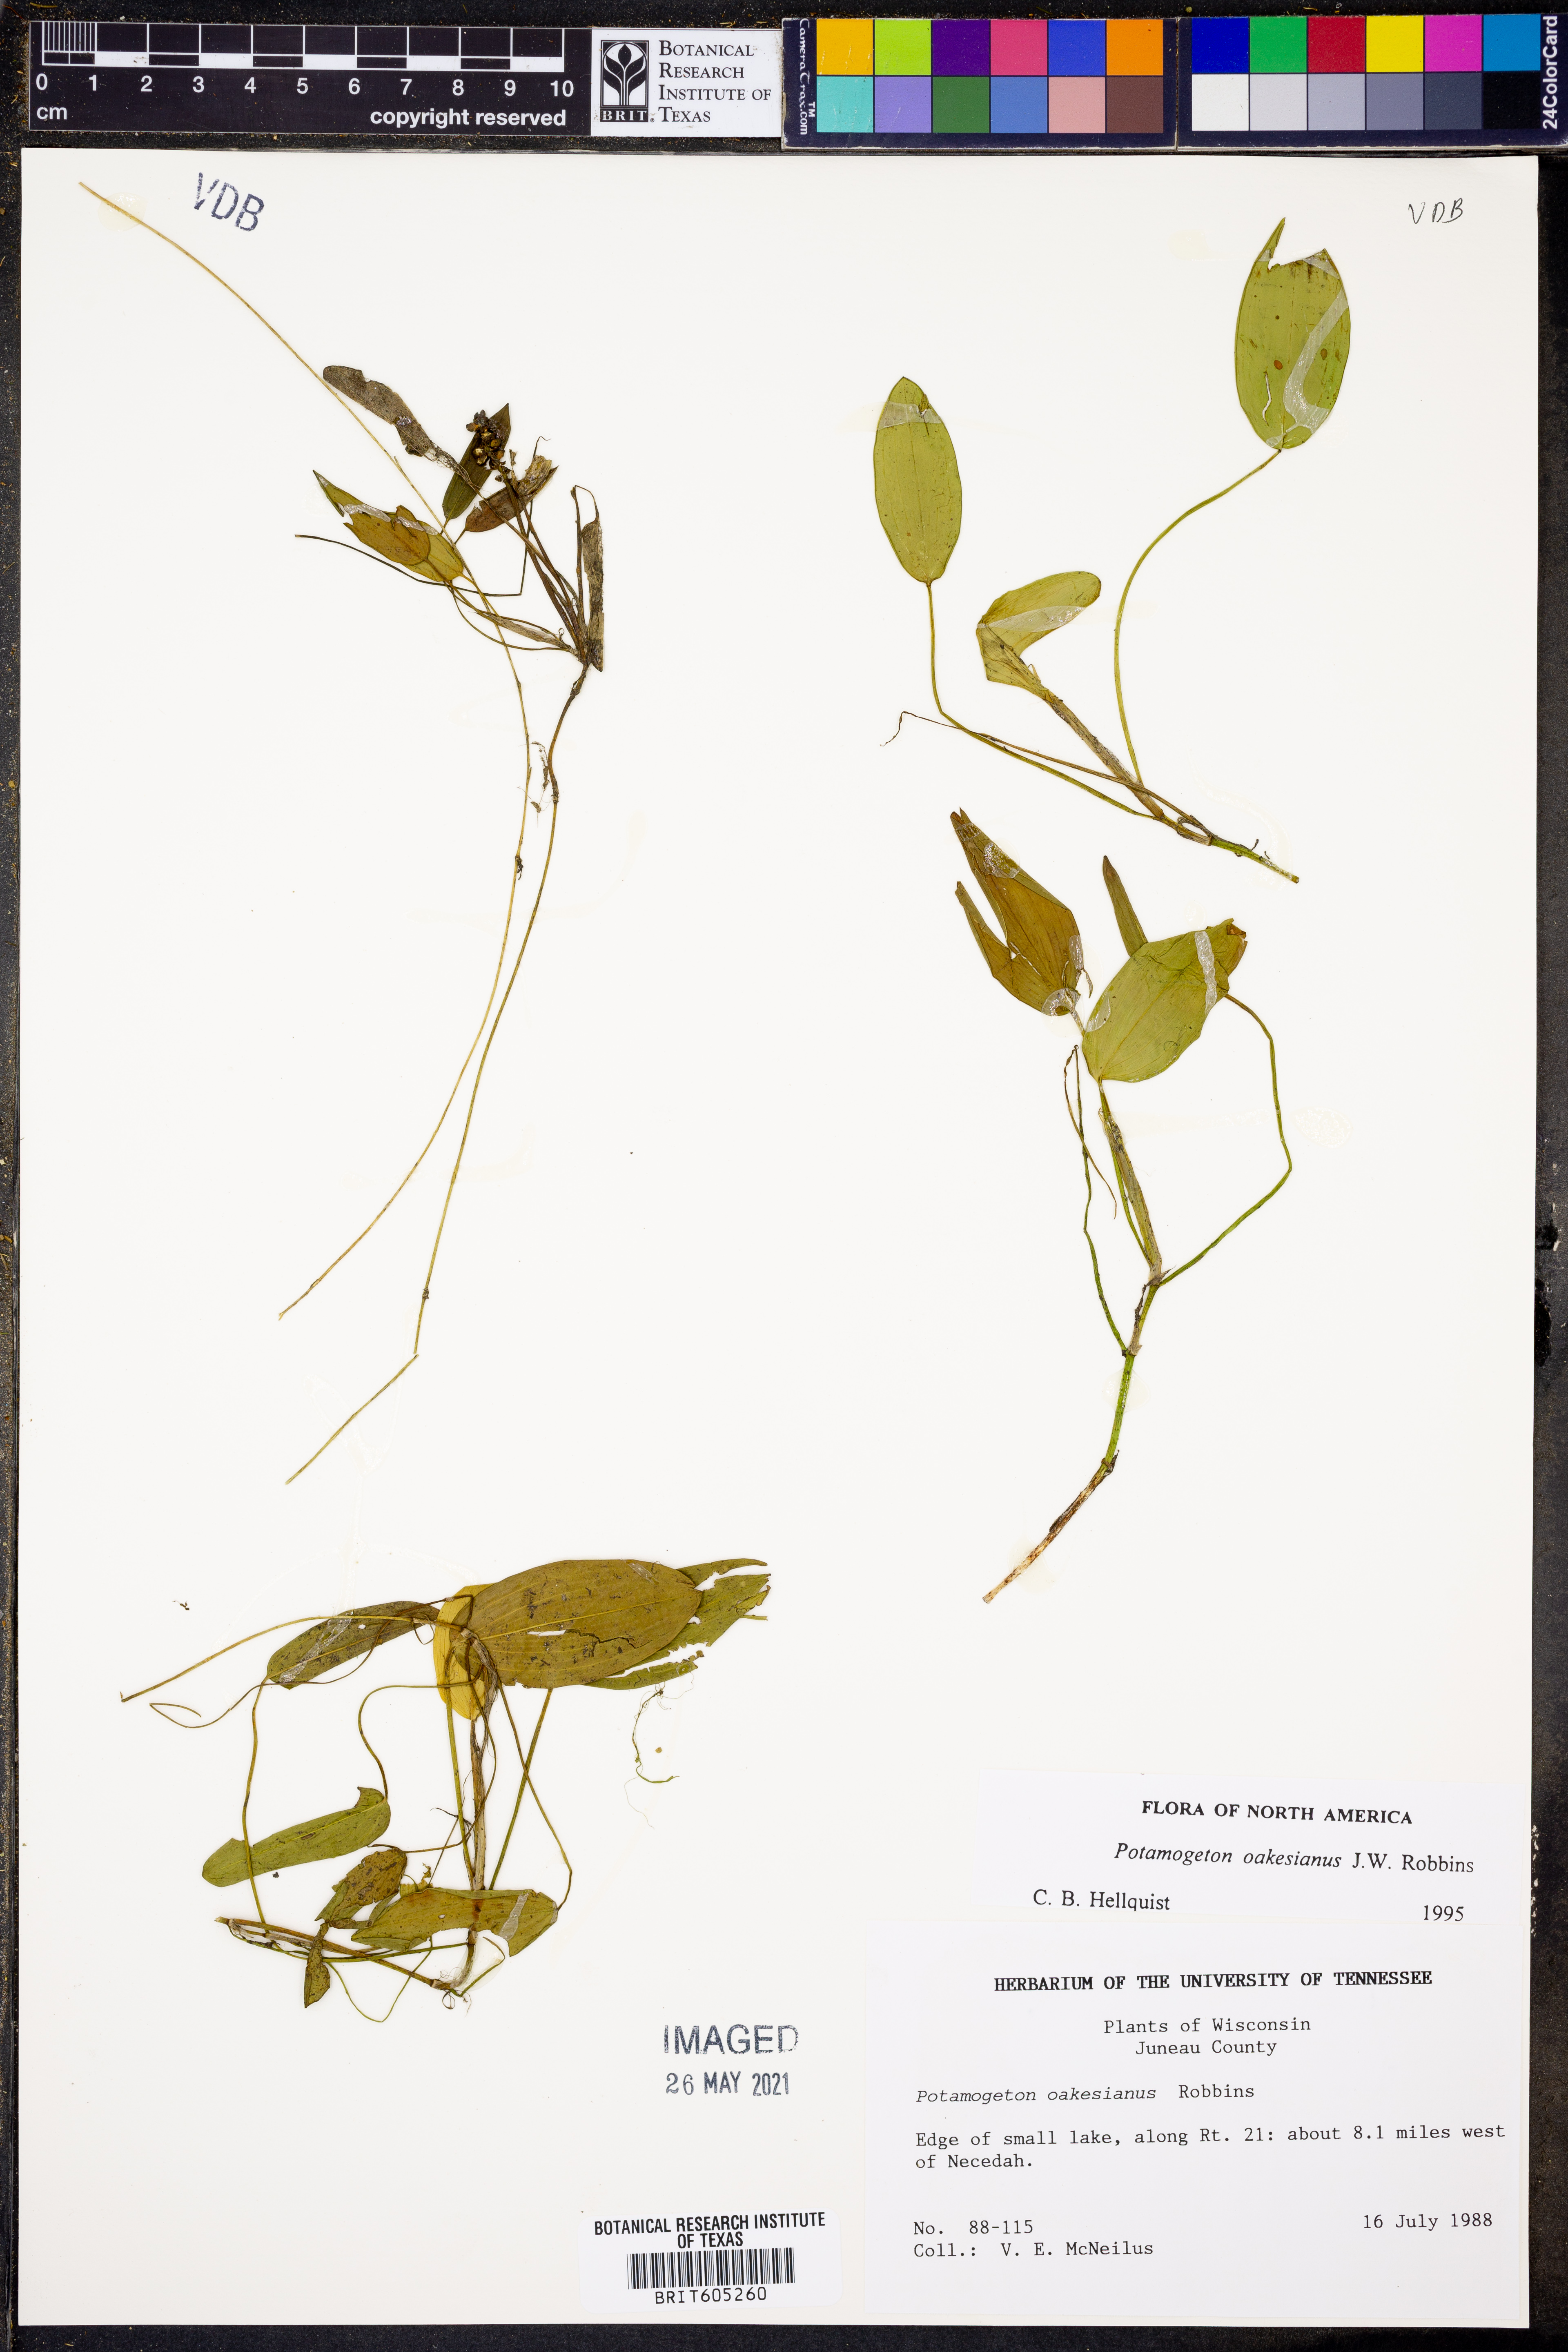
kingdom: Plantae
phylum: Tracheophyta
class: Liliopsida
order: Alismatales
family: Potamogetonaceae
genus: Potamogeton
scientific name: Potamogeton oakesianus
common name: Oakes' pondweed
